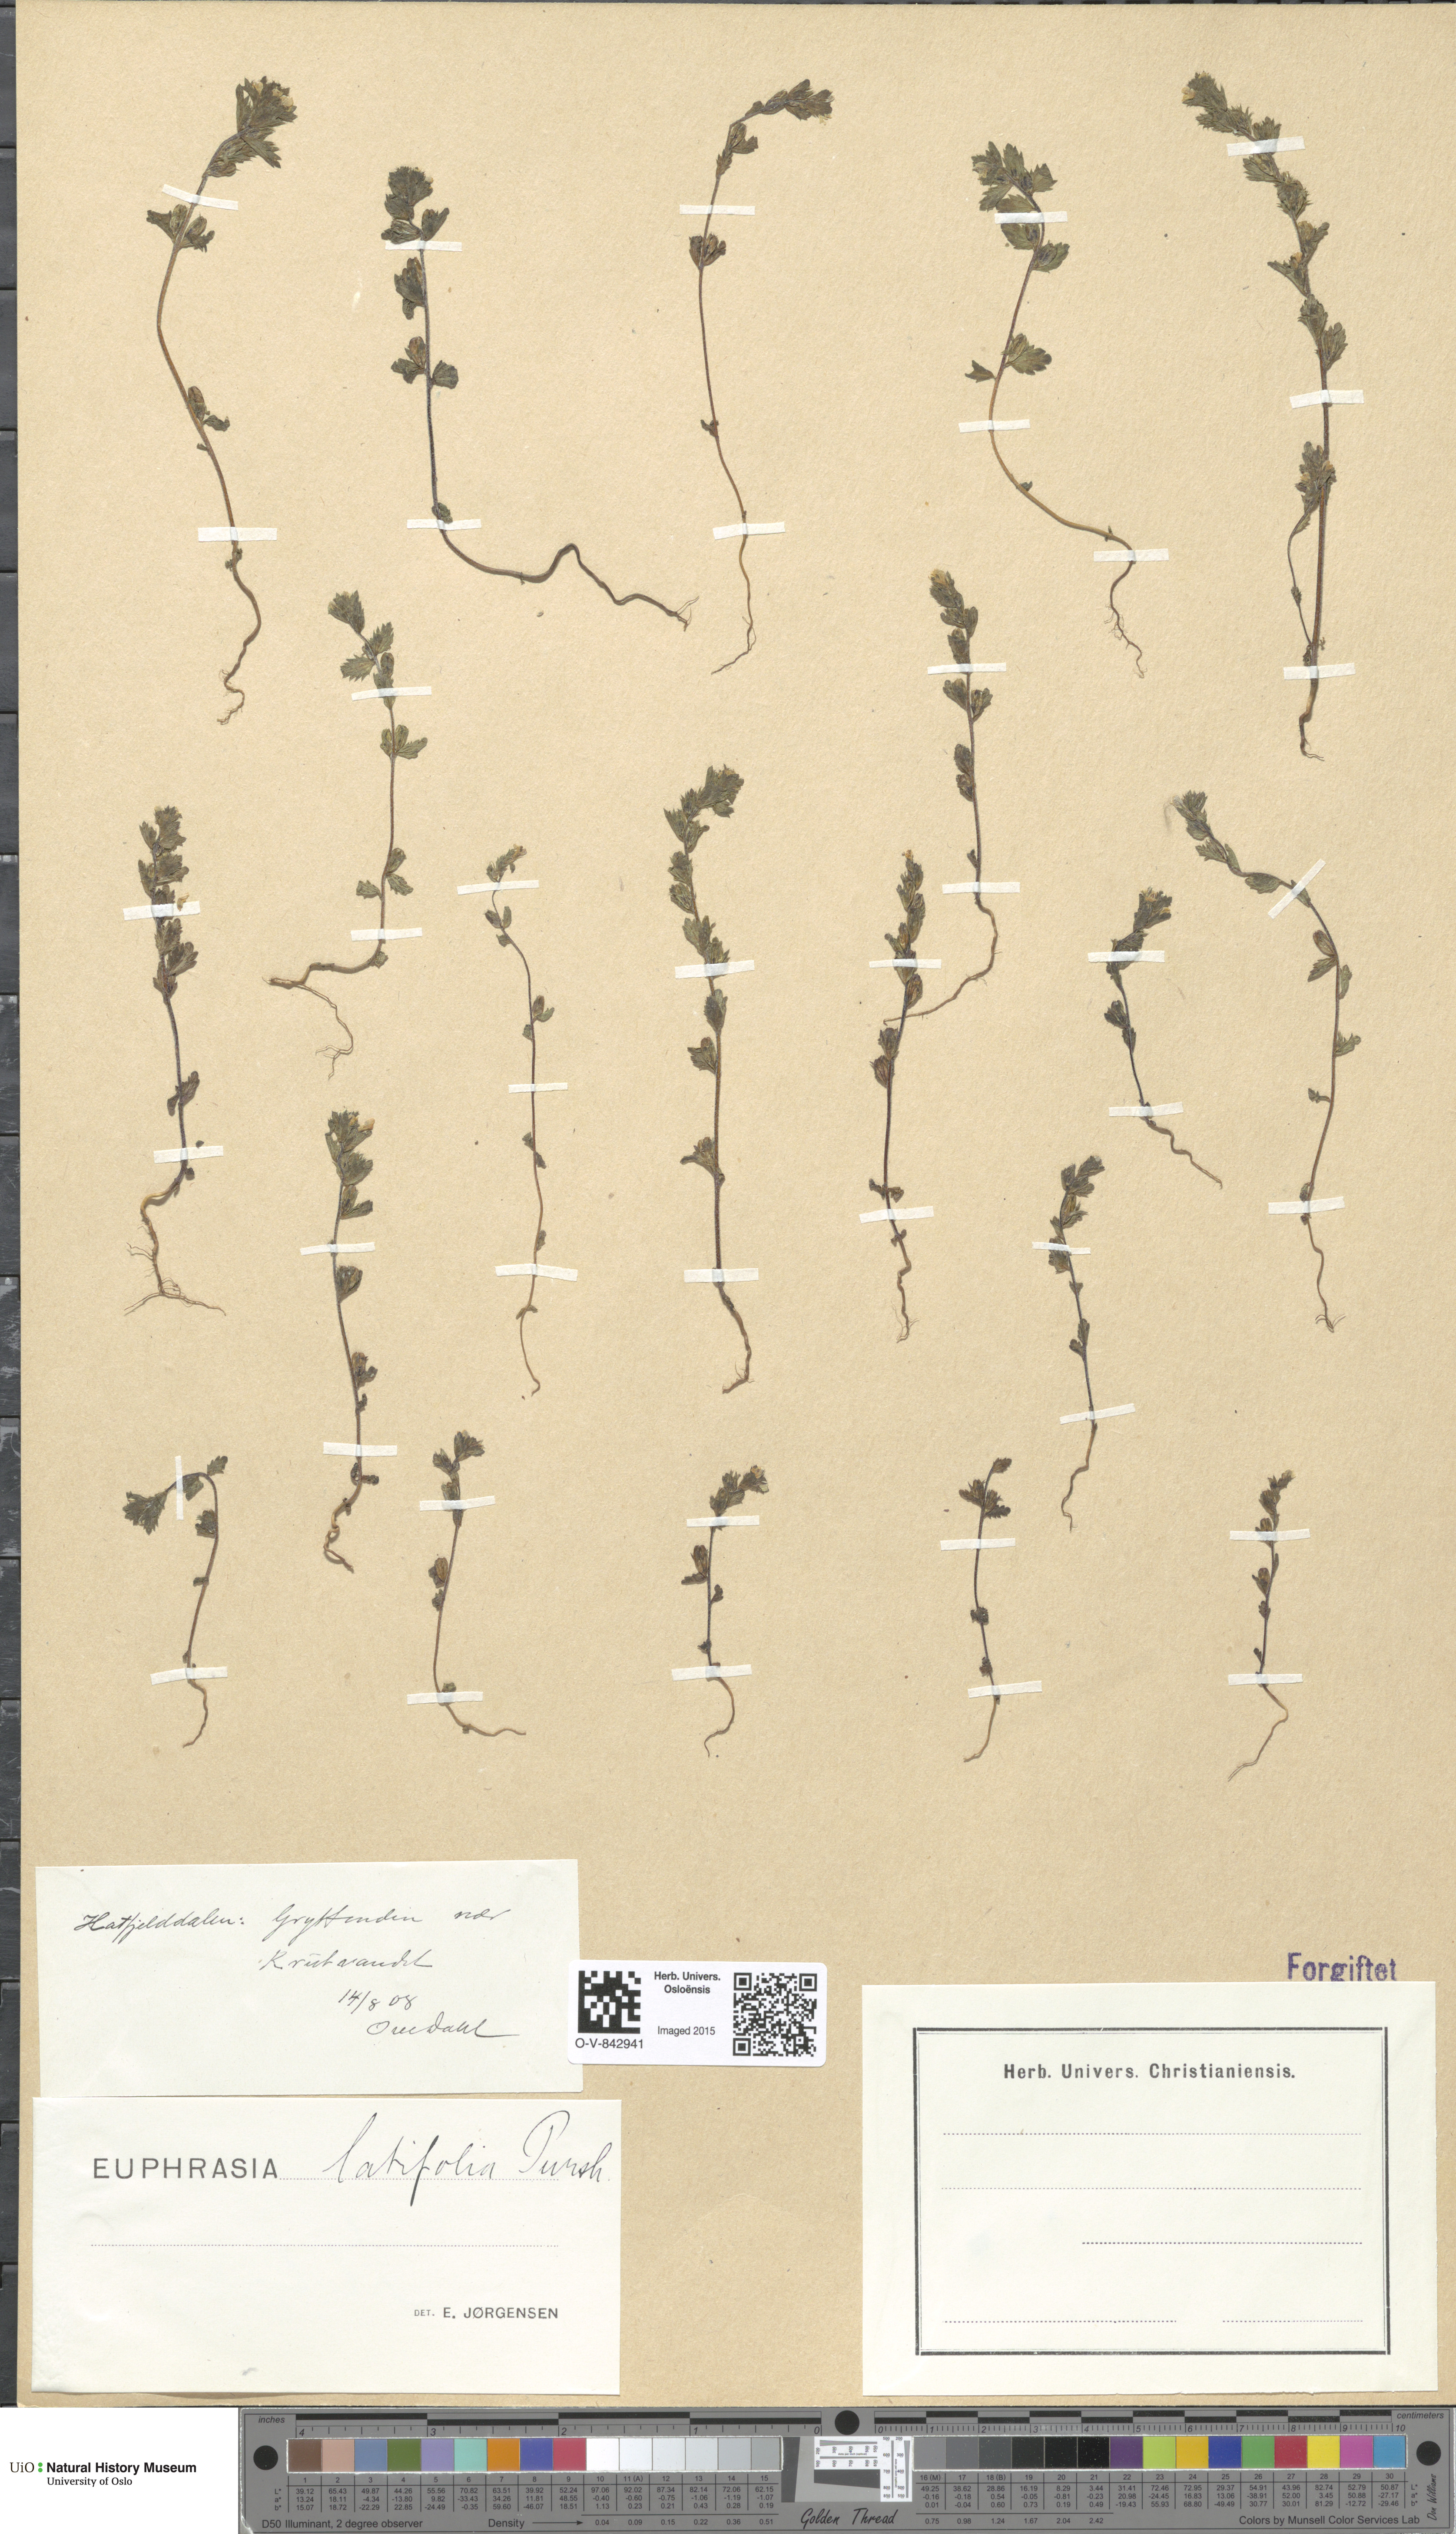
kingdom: Plantae
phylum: Tracheophyta
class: Magnoliopsida
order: Lamiales
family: Orobanchaceae
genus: Euphrasia
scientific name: Euphrasia wettsteinii
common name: Wettstein's eyebright
